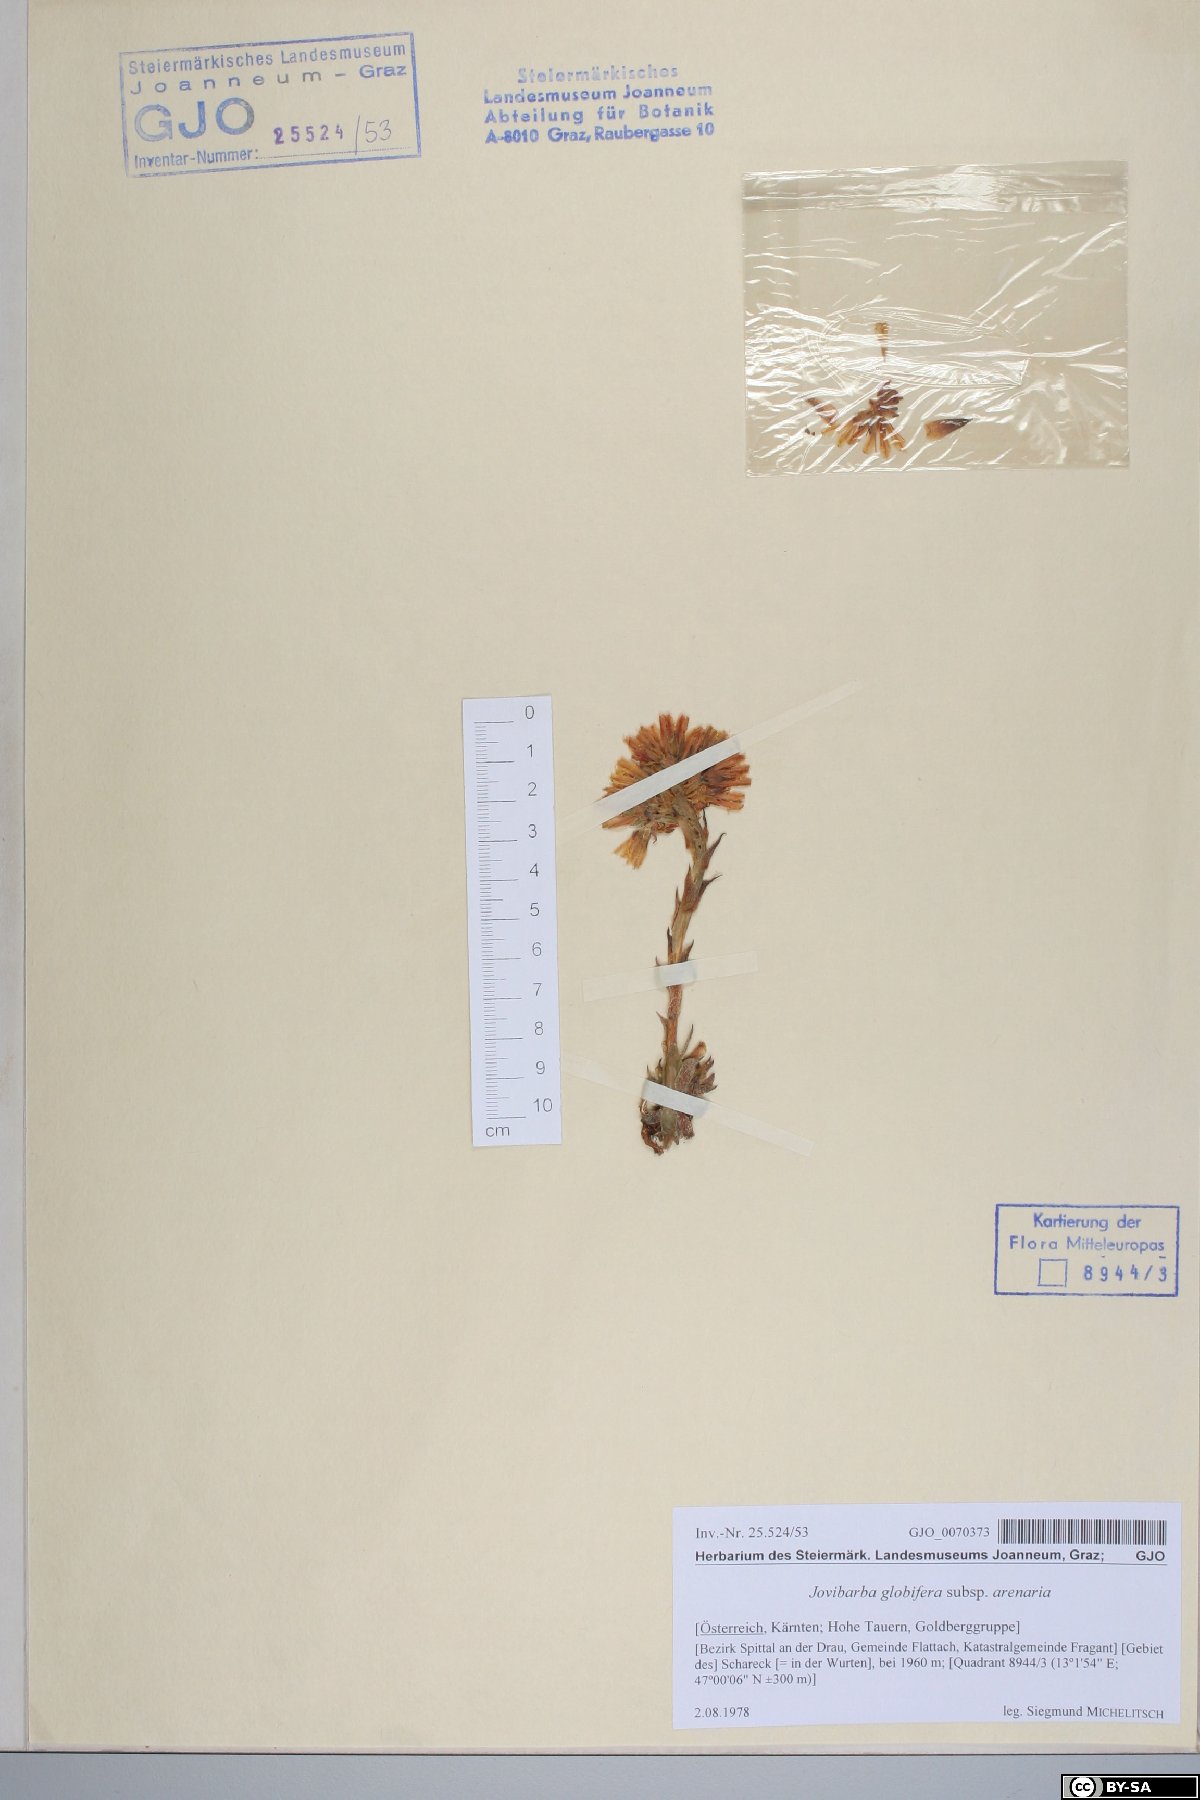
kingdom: Plantae
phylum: Tracheophyta
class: Magnoliopsida
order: Saxifragales
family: Crassulaceae
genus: Sempervivum
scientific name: Sempervivum globiferum
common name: Rolling hen-and-chicks
